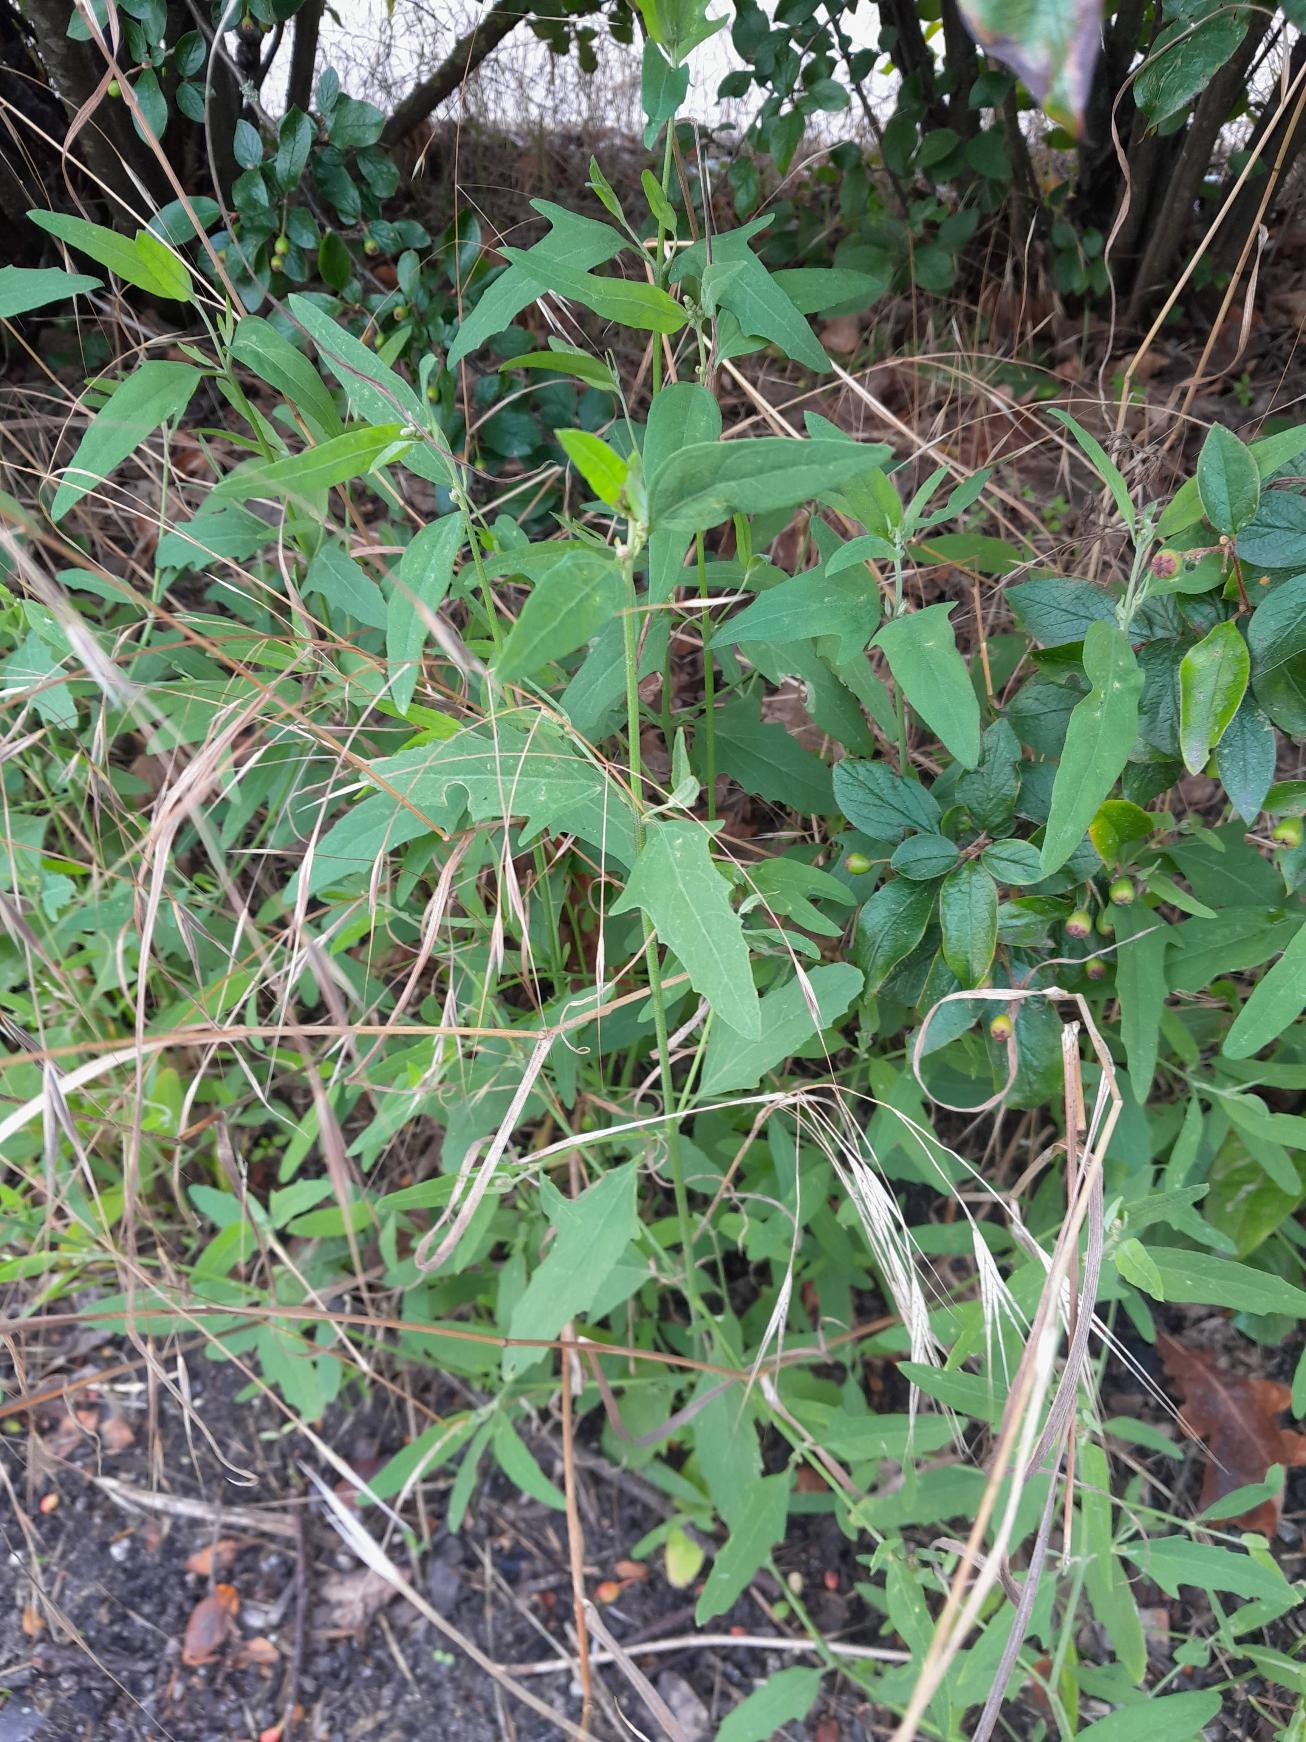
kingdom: Plantae
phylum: Tracheophyta
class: Magnoliopsida
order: Caryophyllales
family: Amaranthaceae
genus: Atriplex
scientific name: Atriplex patula
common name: Svine-mælde
